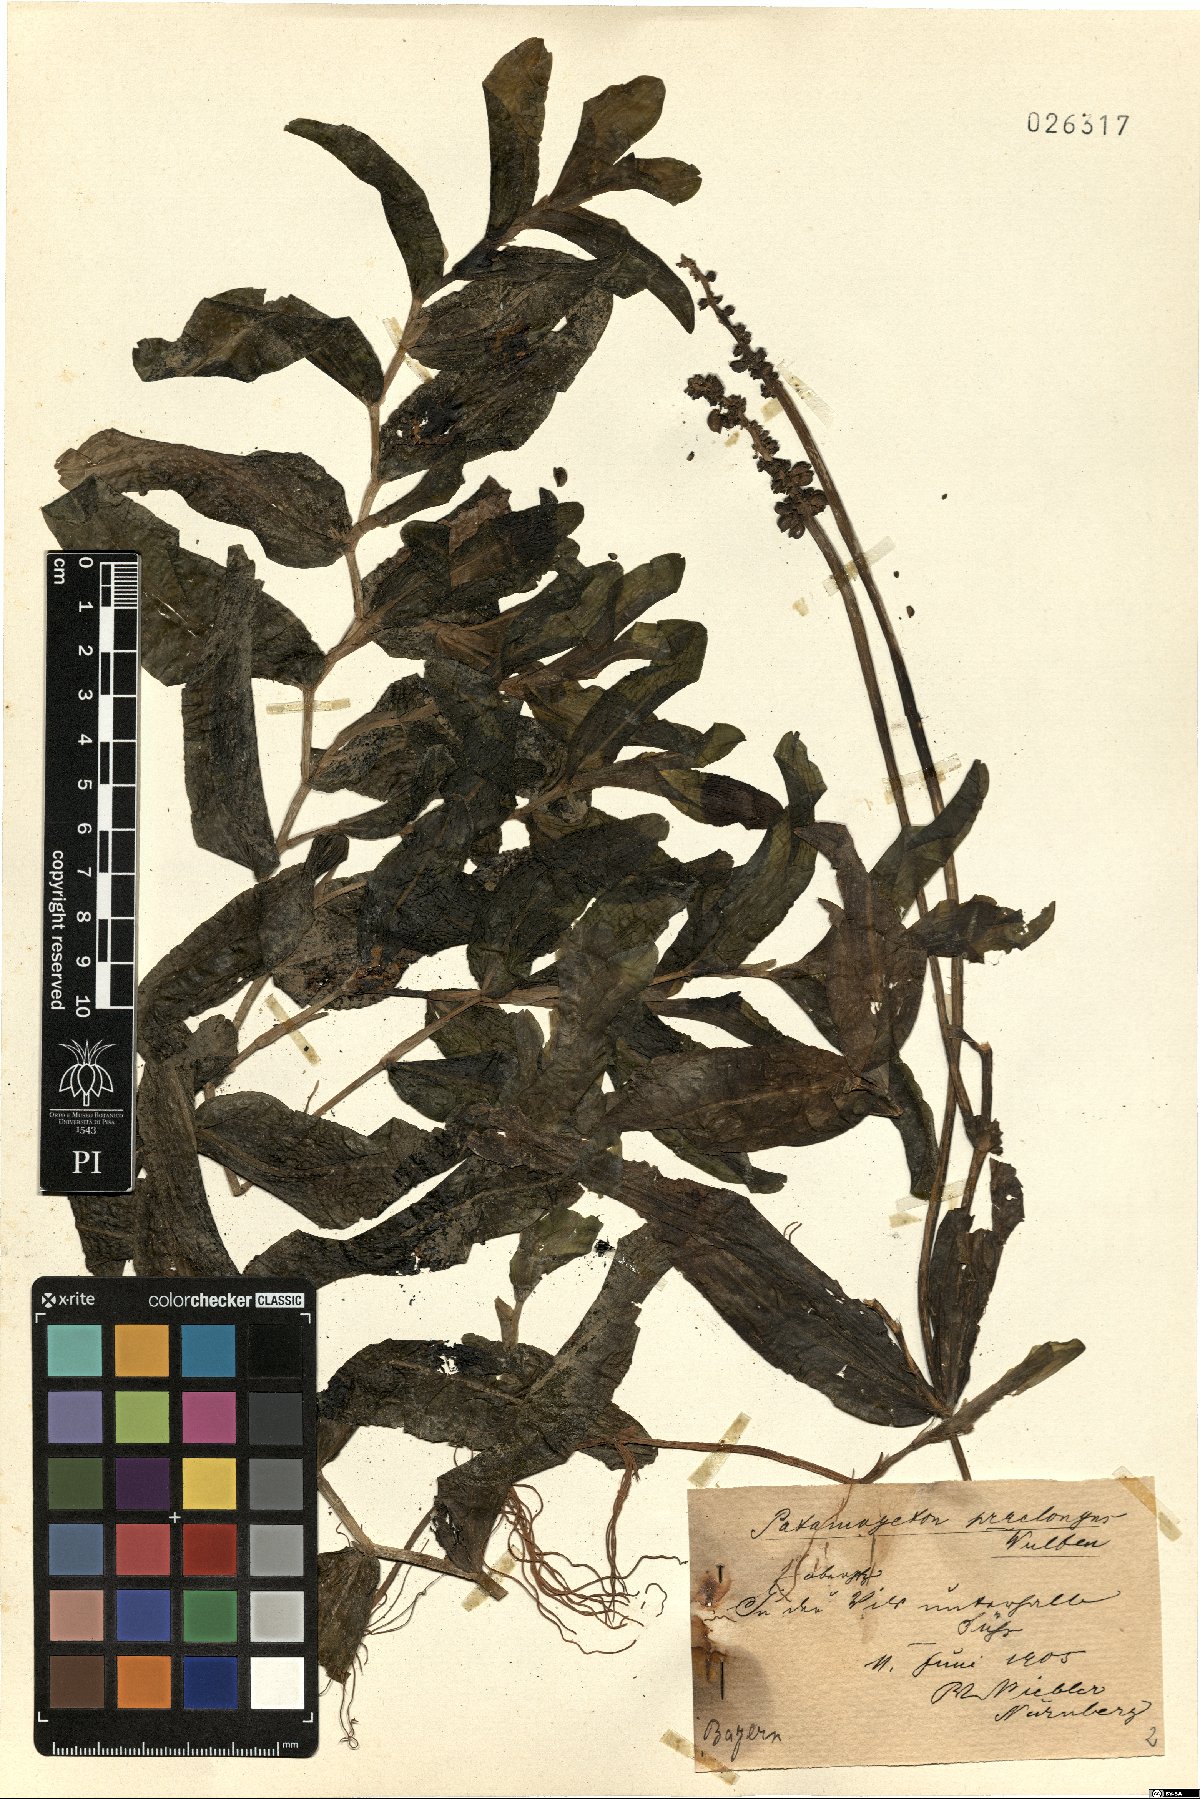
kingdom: Plantae
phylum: Tracheophyta
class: Liliopsida
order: Alismatales
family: Potamogetonaceae
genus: Potamogeton
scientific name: Potamogeton praelongus
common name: Long-stalked pondweed
